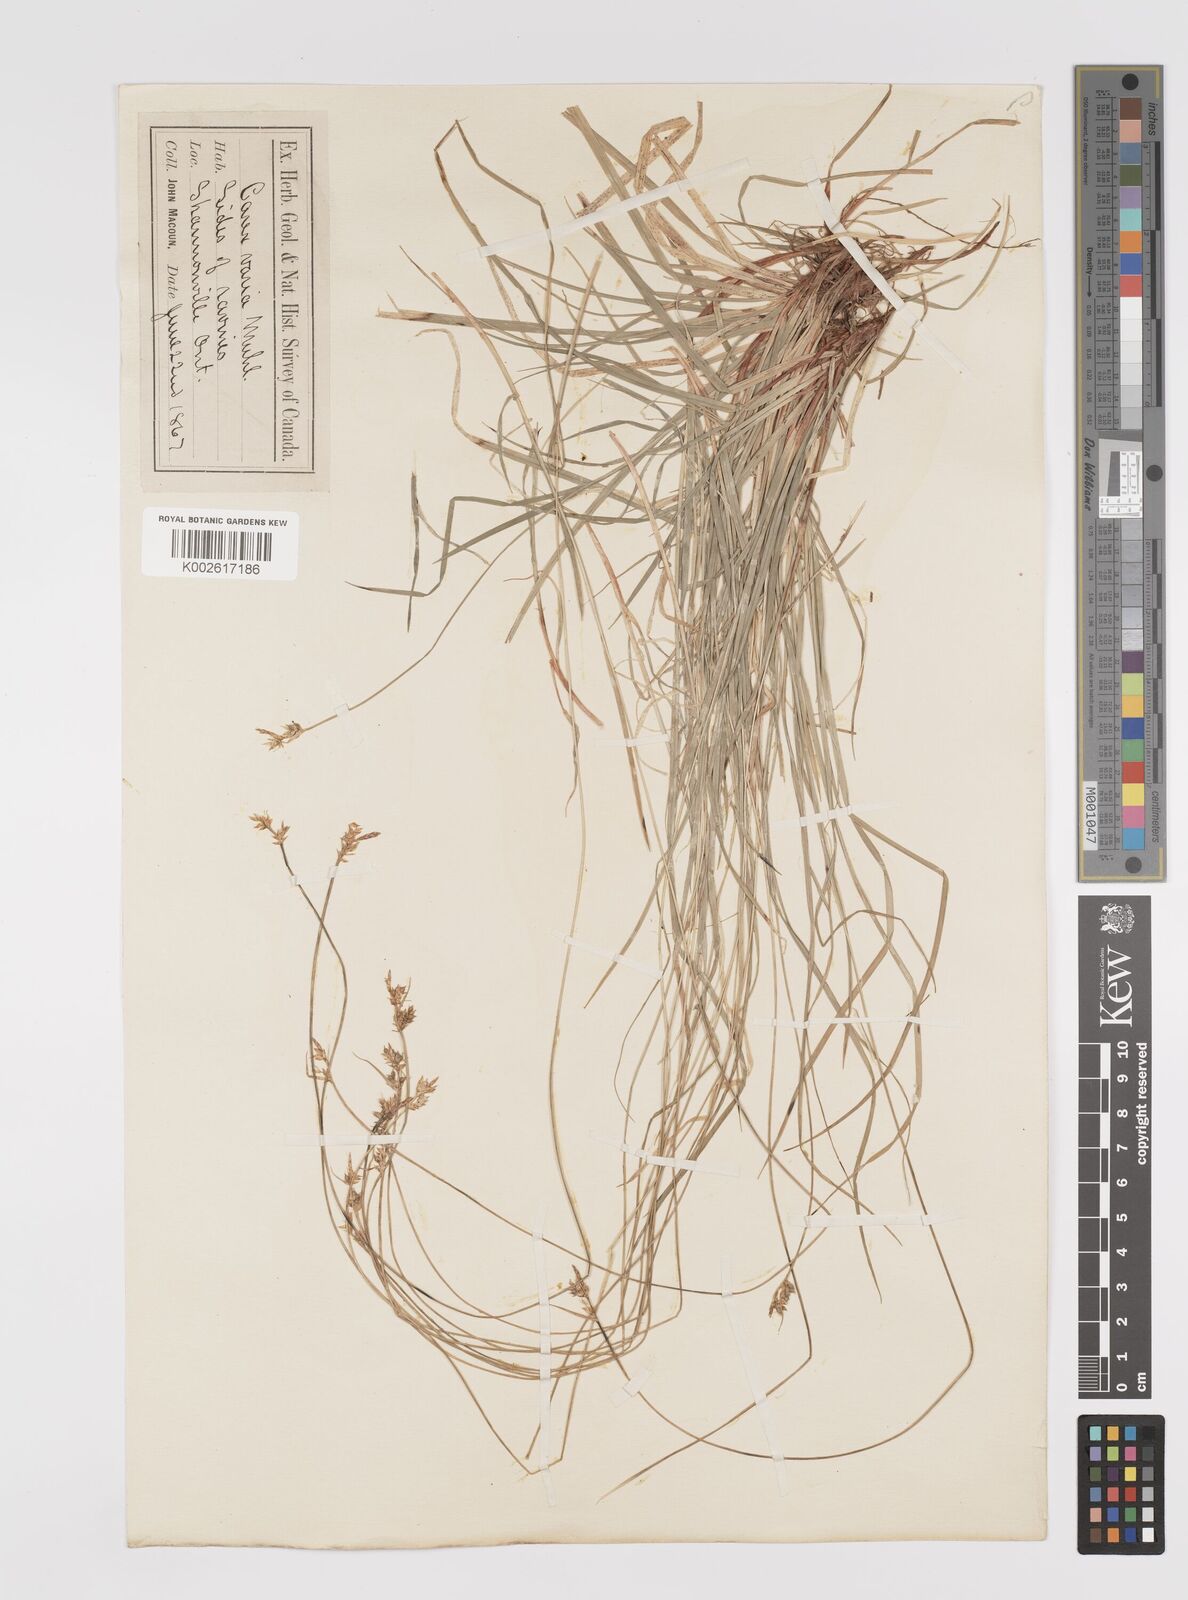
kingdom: Plantae
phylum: Tracheophyta
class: Liliopsida
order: Poales
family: Cyperaceae
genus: Carex
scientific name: Carex albicans
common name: Bellow-beaked sedge
